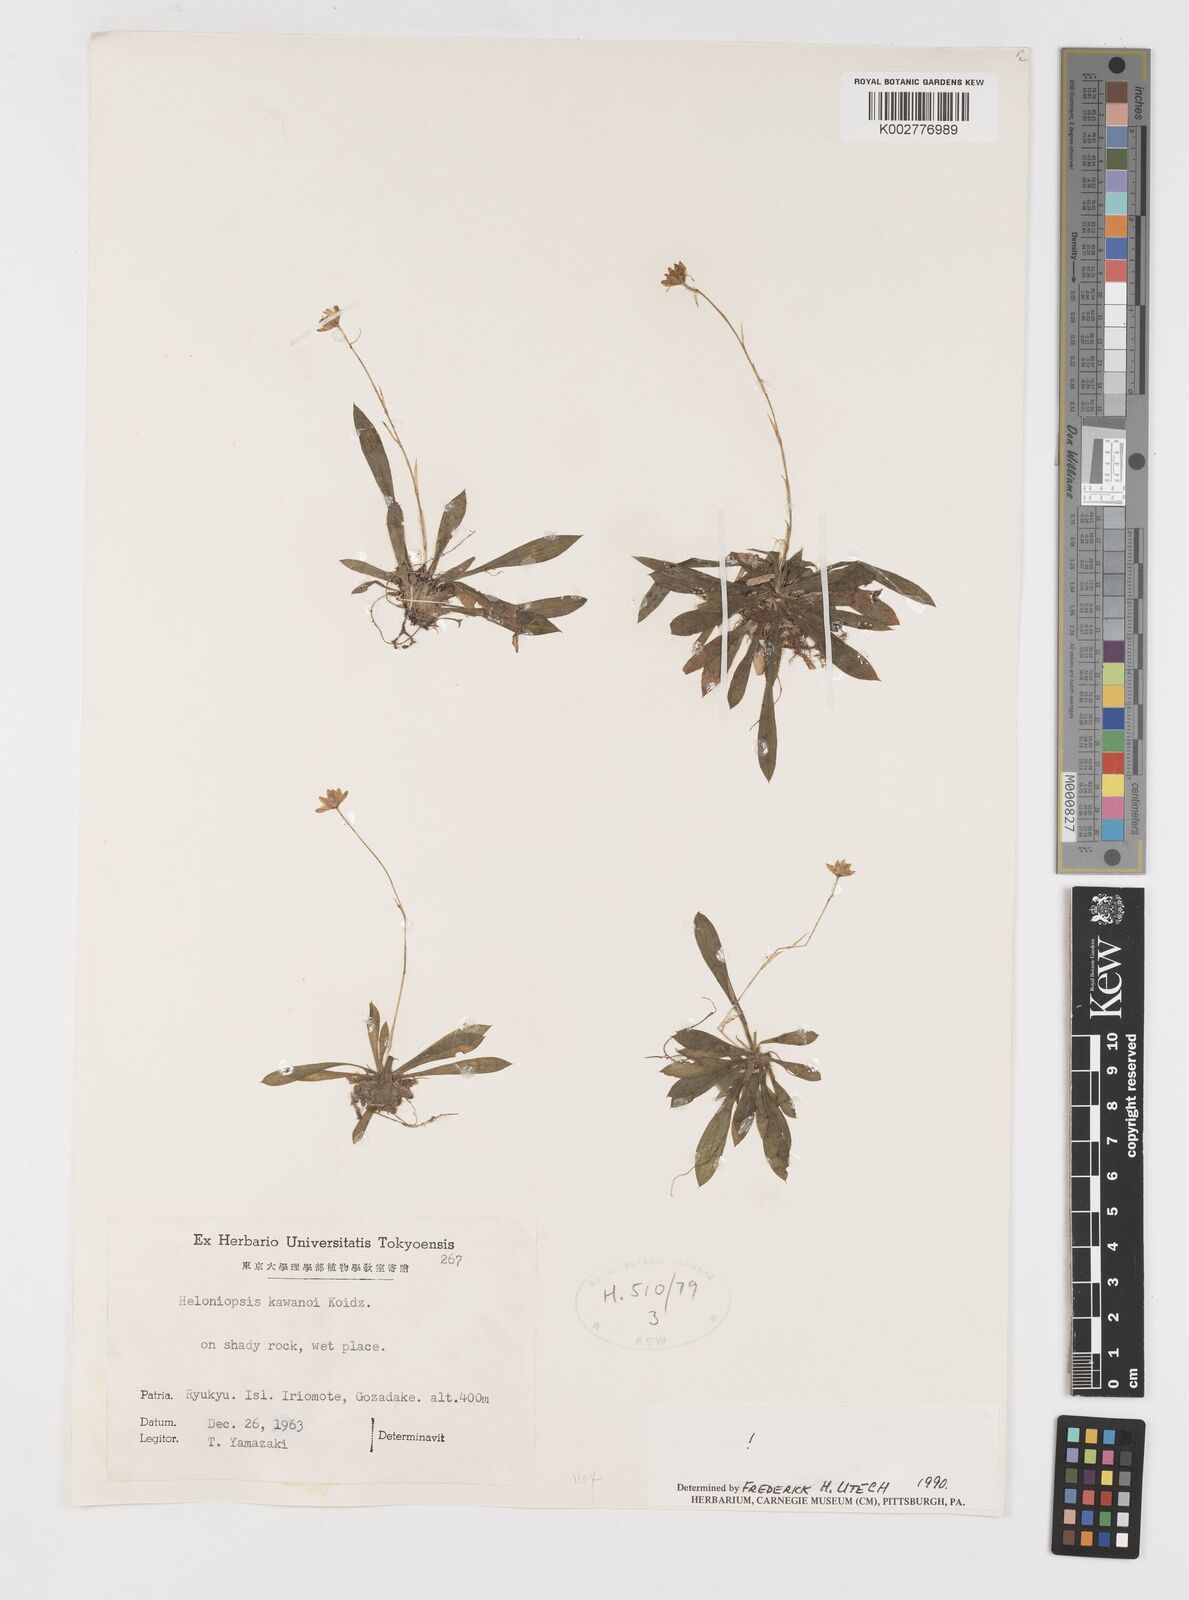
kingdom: Plantae
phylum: Tracheophyta
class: Liliopsida
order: Liliales
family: Melanthiaceae
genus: Helonias
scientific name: Helonias umbellata
